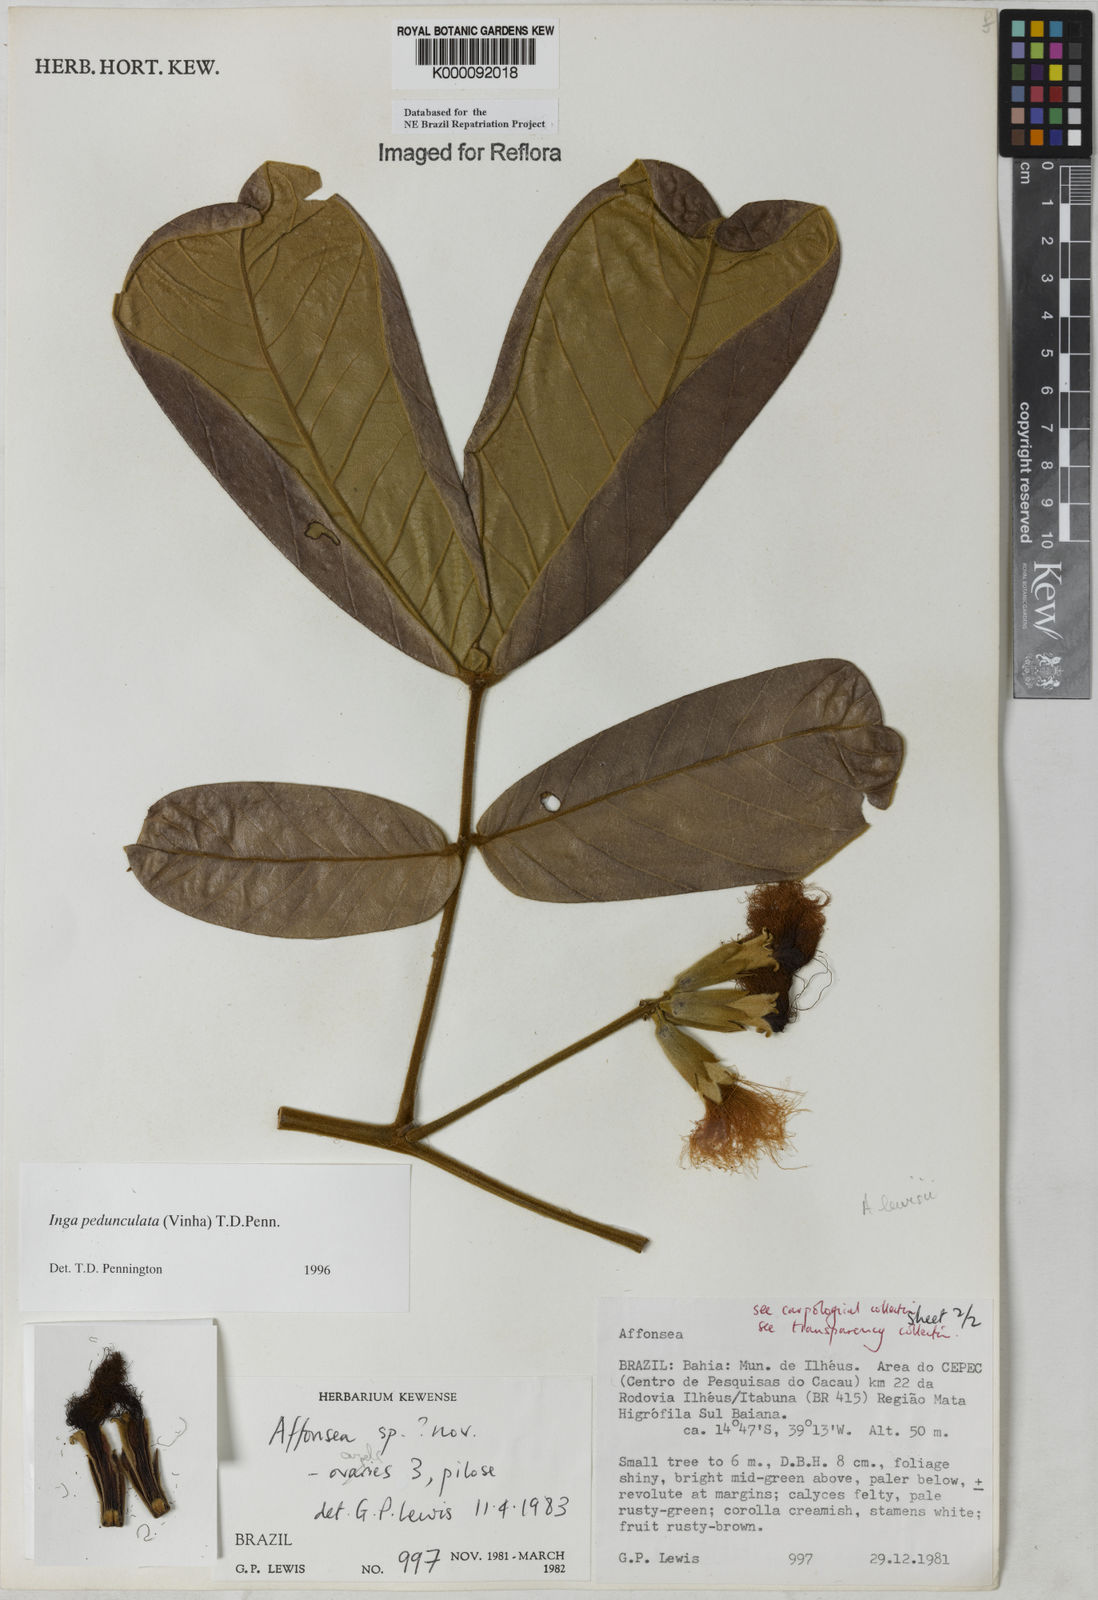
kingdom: Plantae
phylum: Tracheophyta
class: Magnoliopsida
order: Fabales
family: Fabaceae
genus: Inga
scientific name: Inga pedunculata
